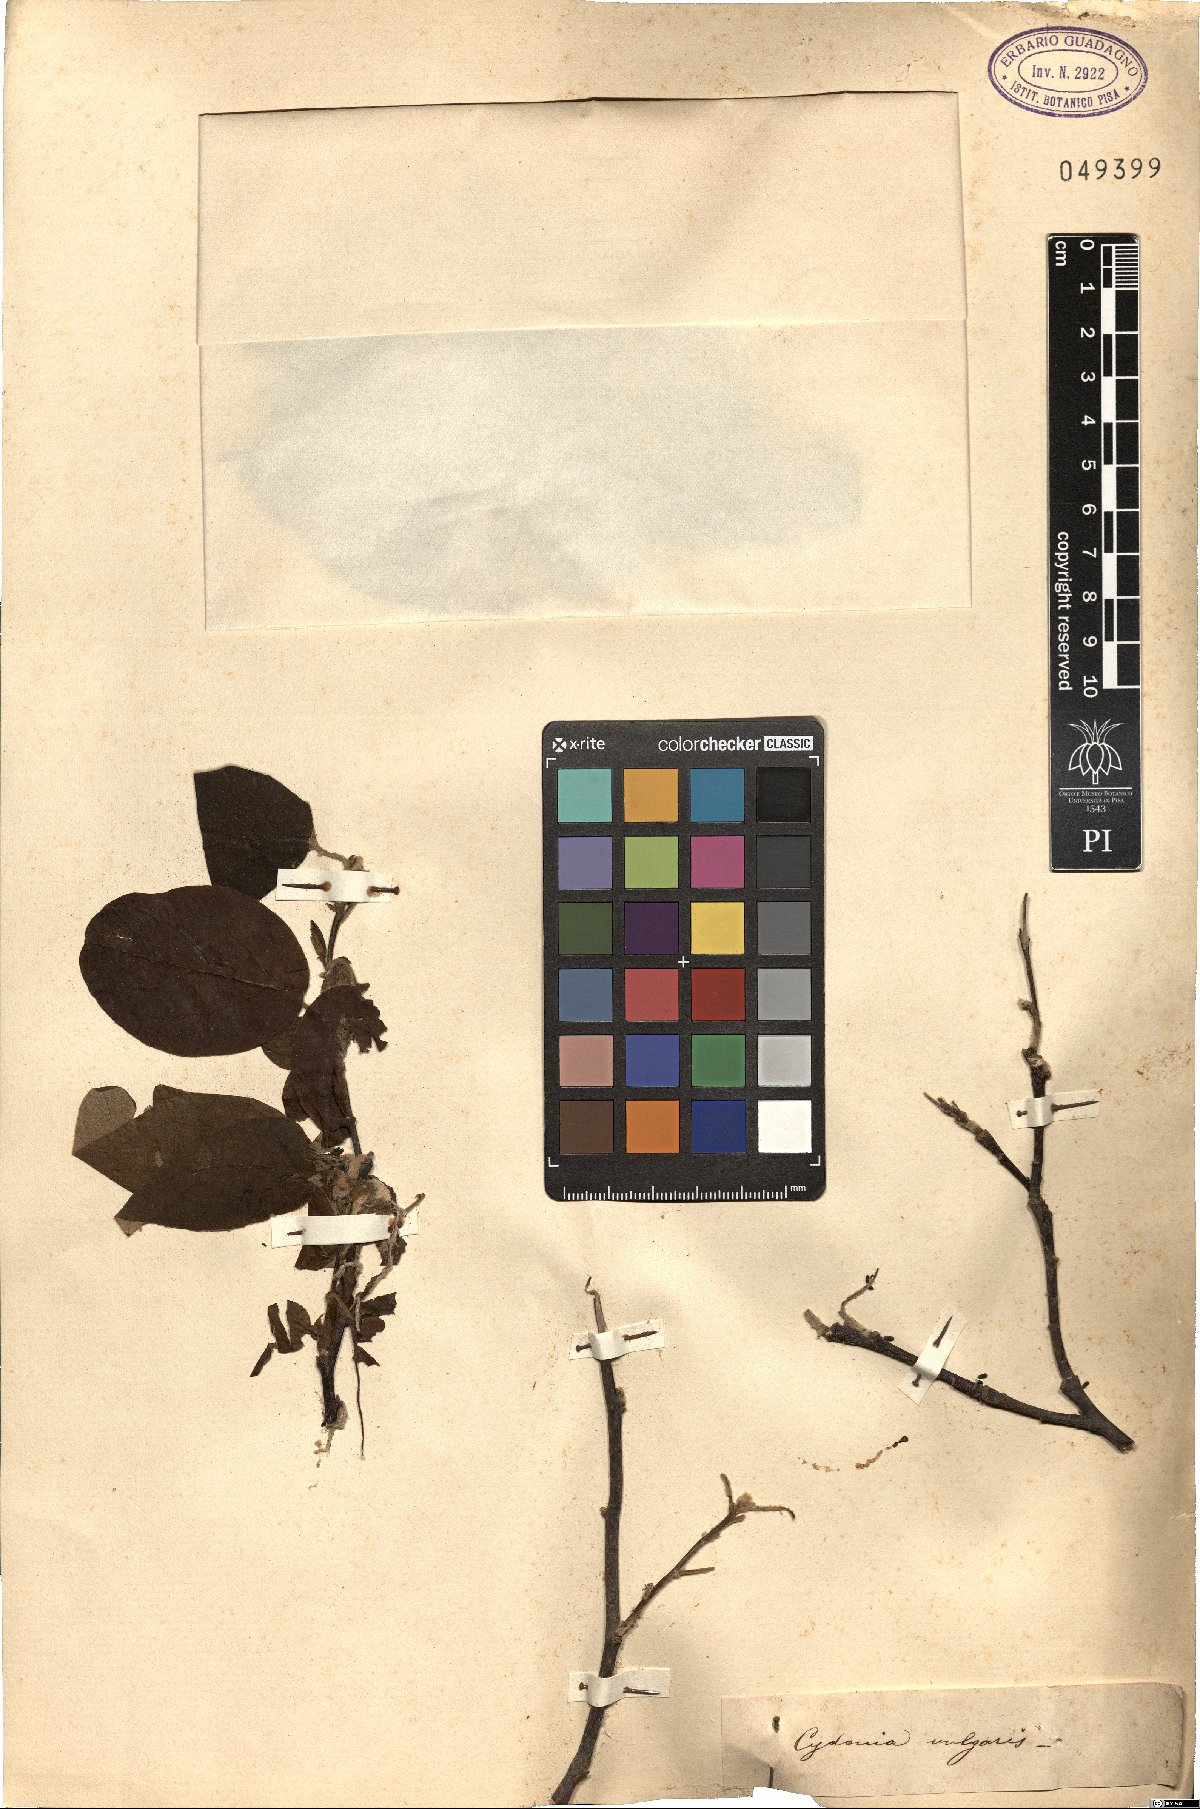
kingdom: Plantae
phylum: Tracheophyta
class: Magnoliopsida
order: Rosales
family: Rosaceae
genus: Cydonia
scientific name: Cydonia oblonga
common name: Quince
